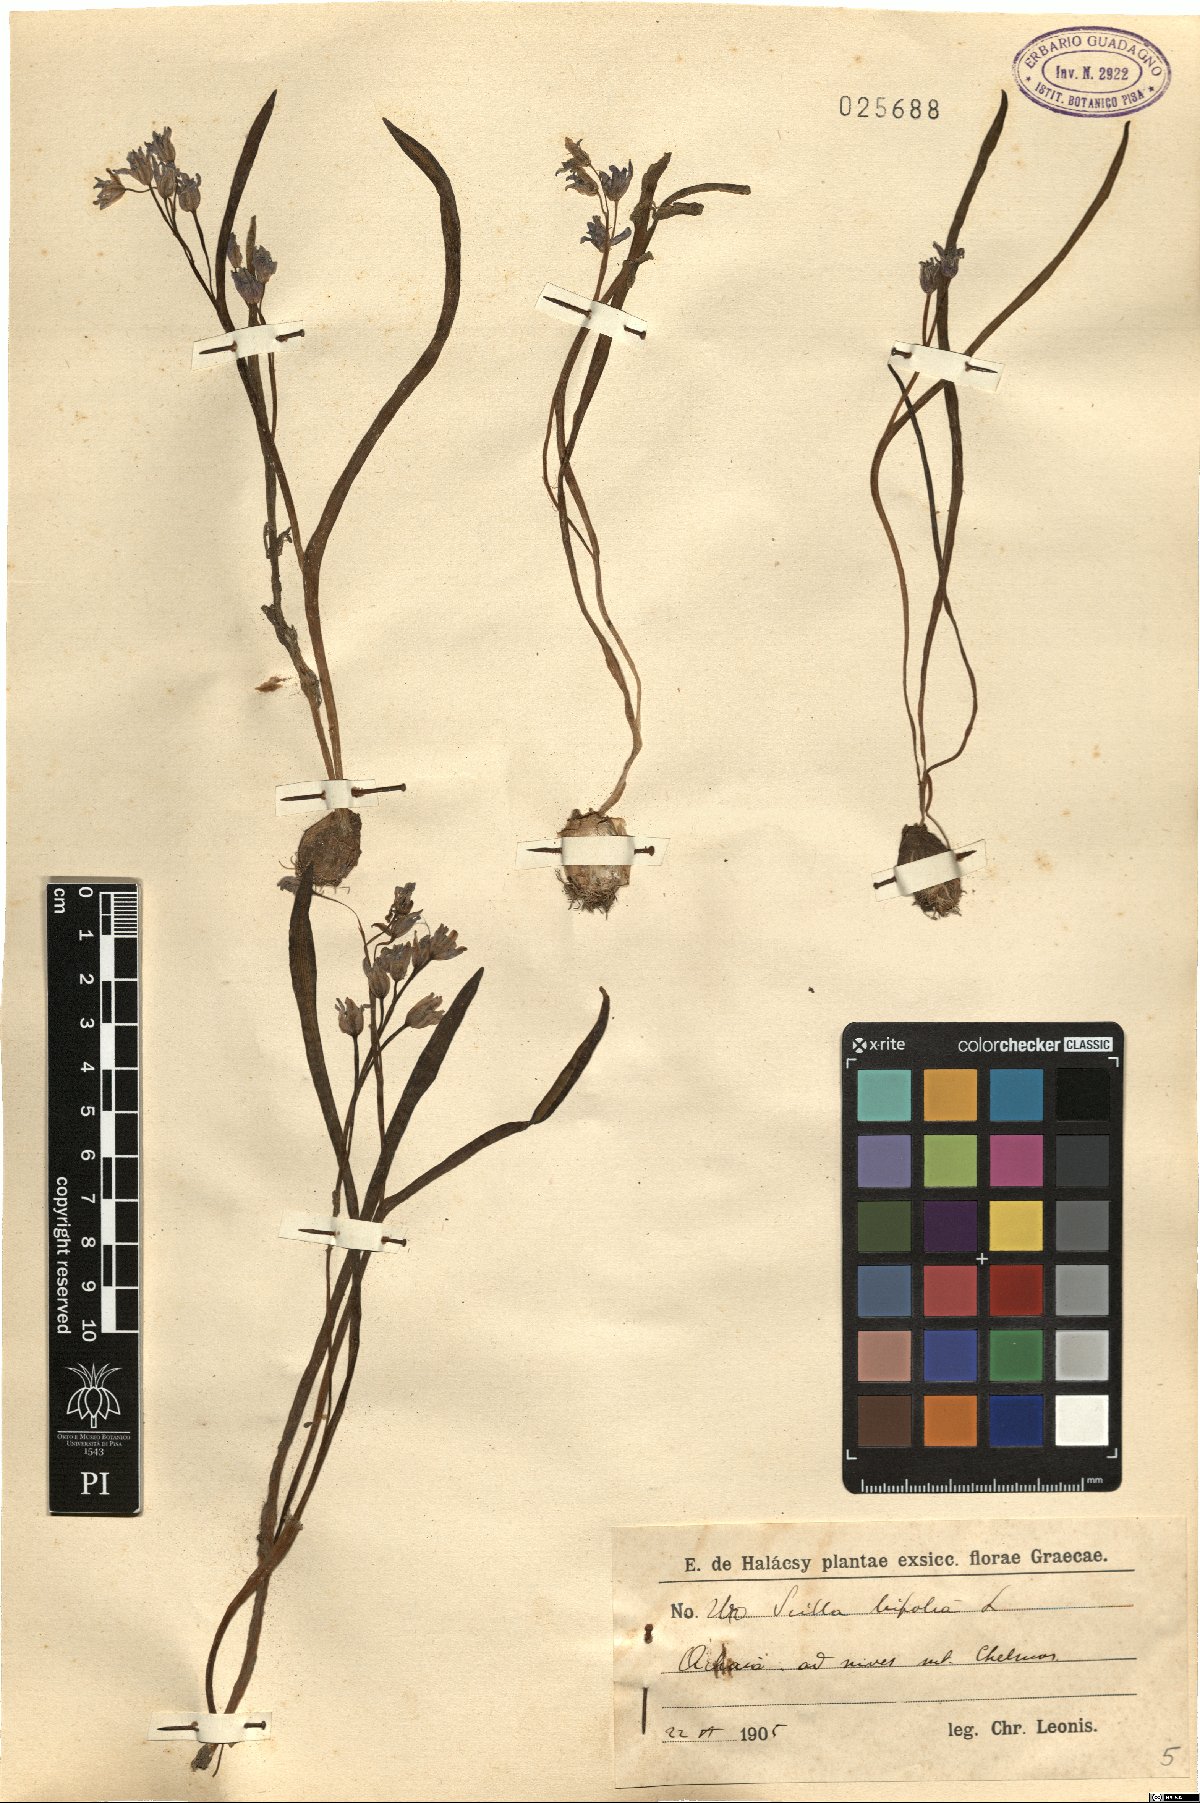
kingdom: Plantae
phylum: Tracheophyta
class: Liliopsida
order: Asparagales
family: Asparagaceae
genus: Scilla
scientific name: Scilla bifolia
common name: Alpine squill
